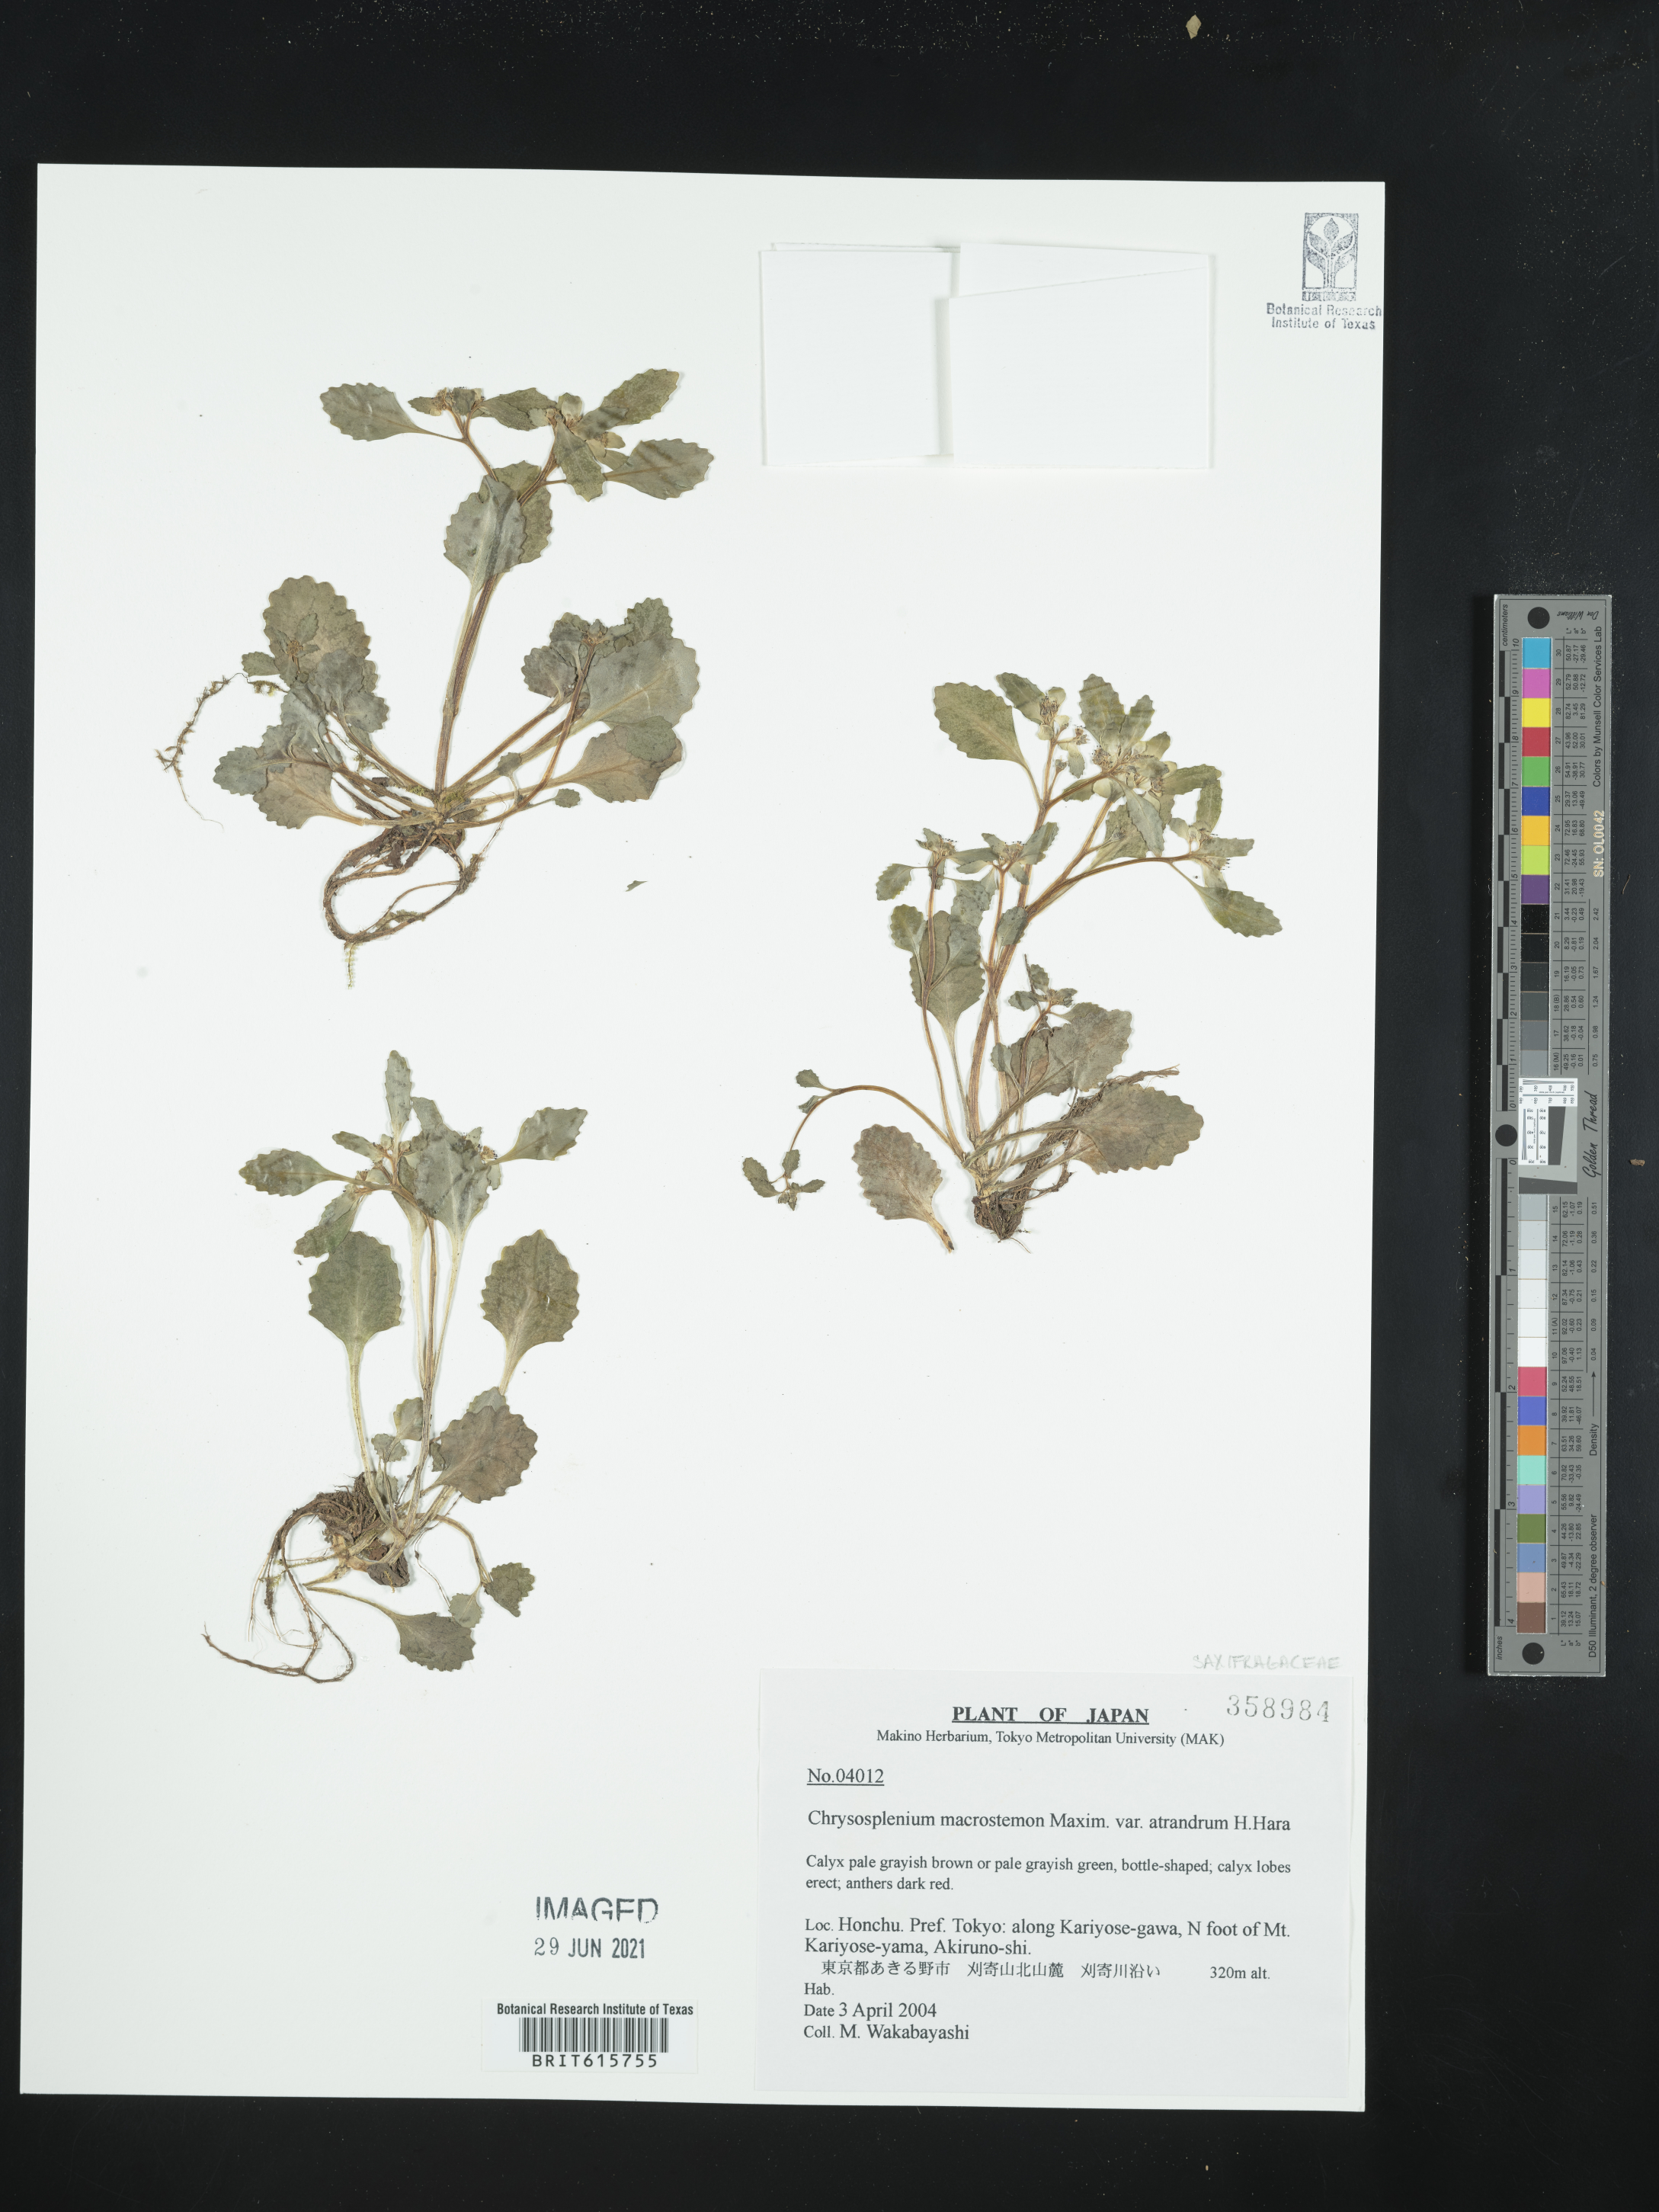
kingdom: Plantae
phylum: Tracheophyta
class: Magnoliopsida
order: Saxifragales
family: Saxifragaceae
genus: Chrysosplenium
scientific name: Chrysosplenium macrostemon
